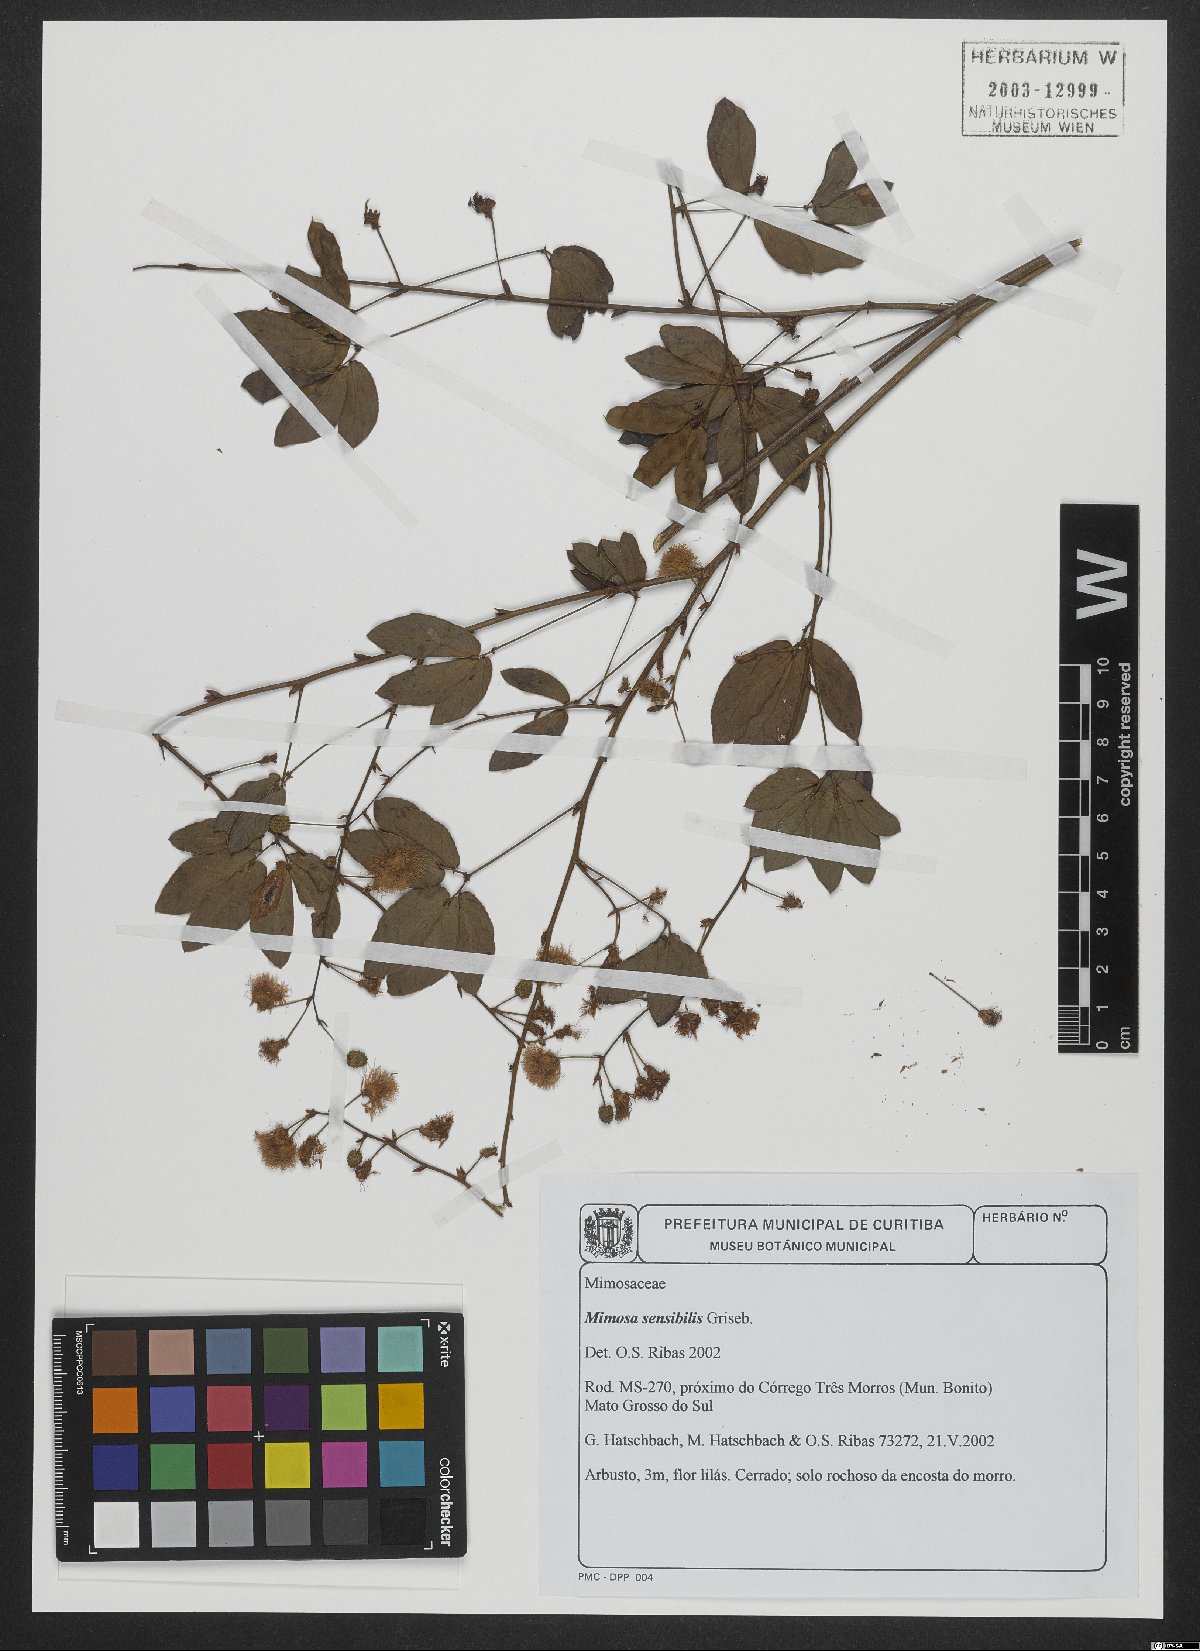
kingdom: Plantae
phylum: Tracheophyta
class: Magnoliopsida
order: Fabales
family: Fabaceae
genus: Mimosa
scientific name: Mimosa sensibilis
